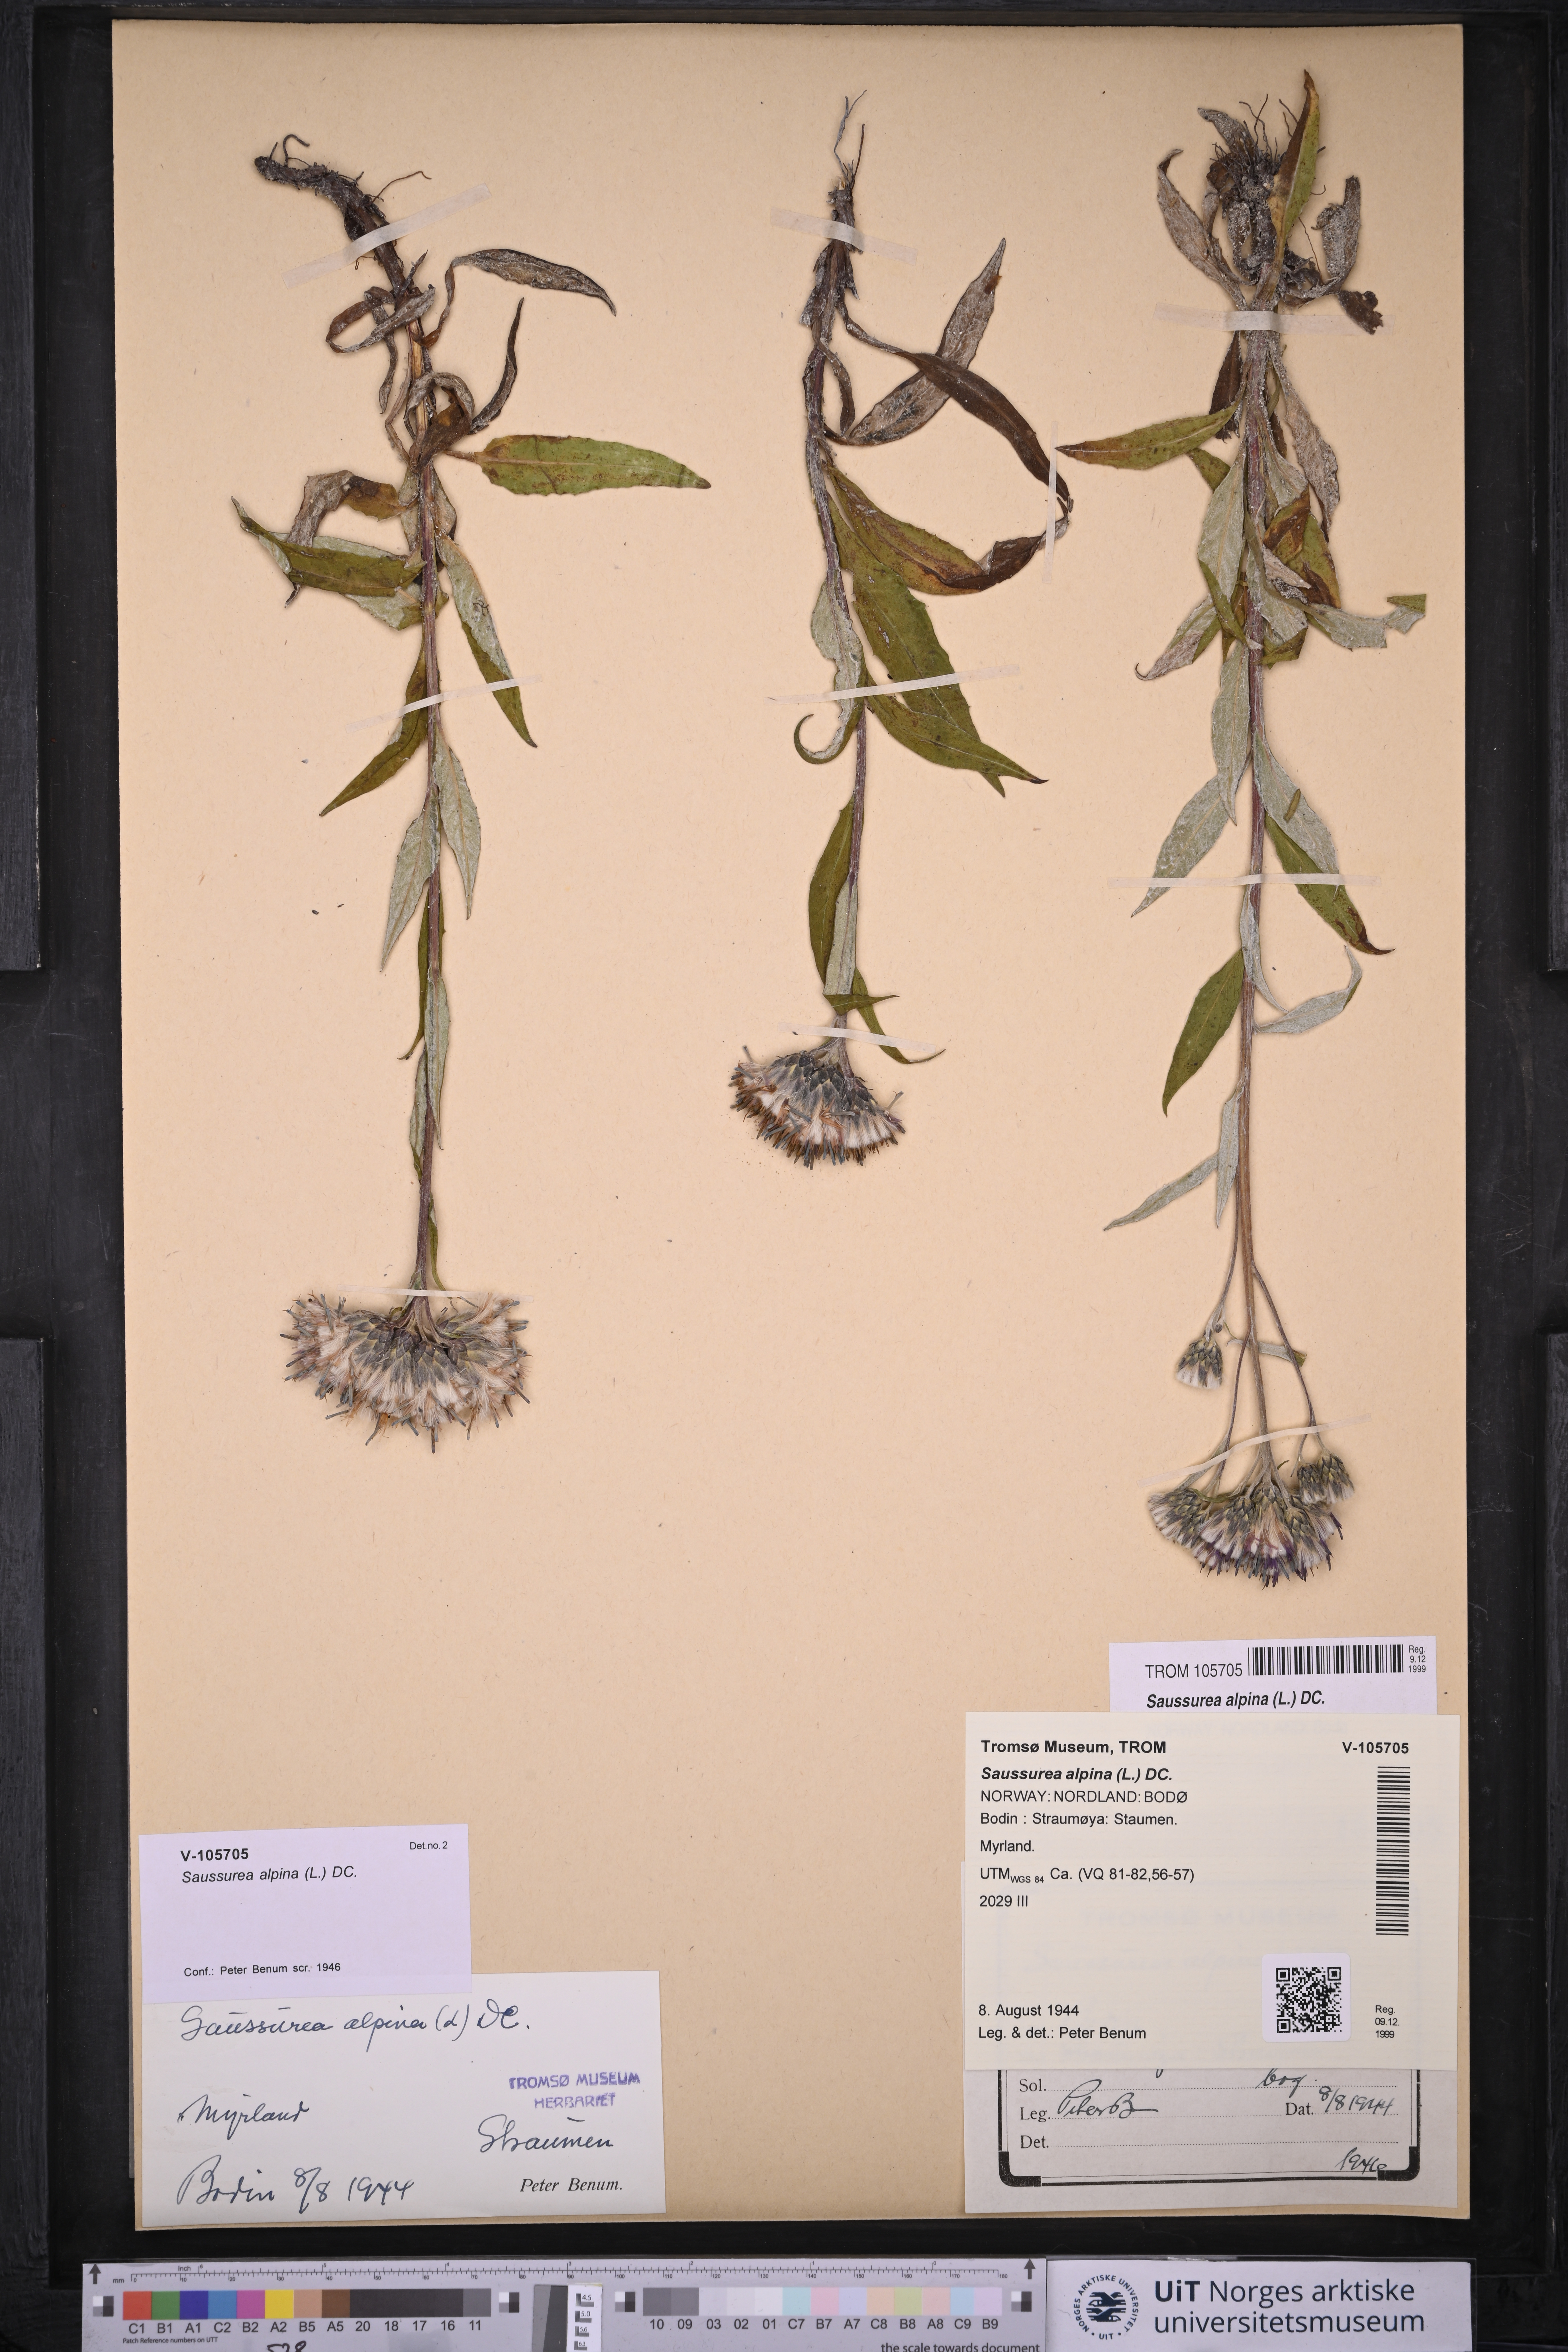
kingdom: Plantae
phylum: Tracheophyta
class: Magnoliopsida
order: Asterales
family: Asteraceae
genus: Saussurea
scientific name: Saussurea alpina
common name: Alpine saw-wort
